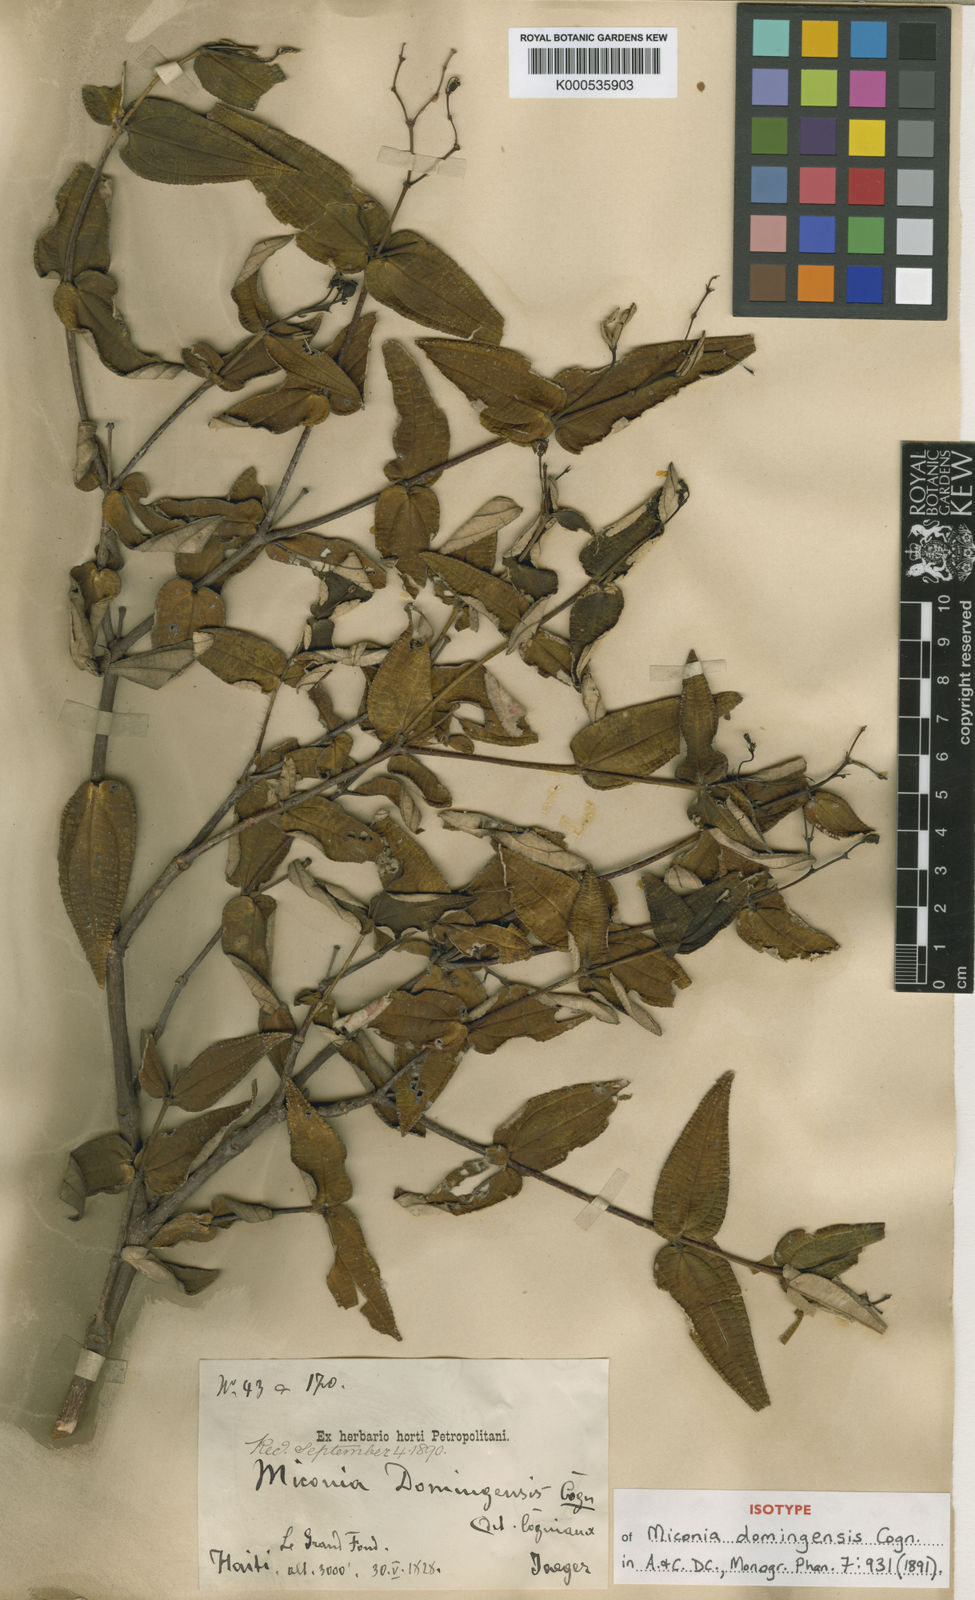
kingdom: Plantae
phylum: Tracheophyta
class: Magnoliopsida
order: Myrtales
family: Melastomataceae
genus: Miconia
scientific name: Miconia domingensis
